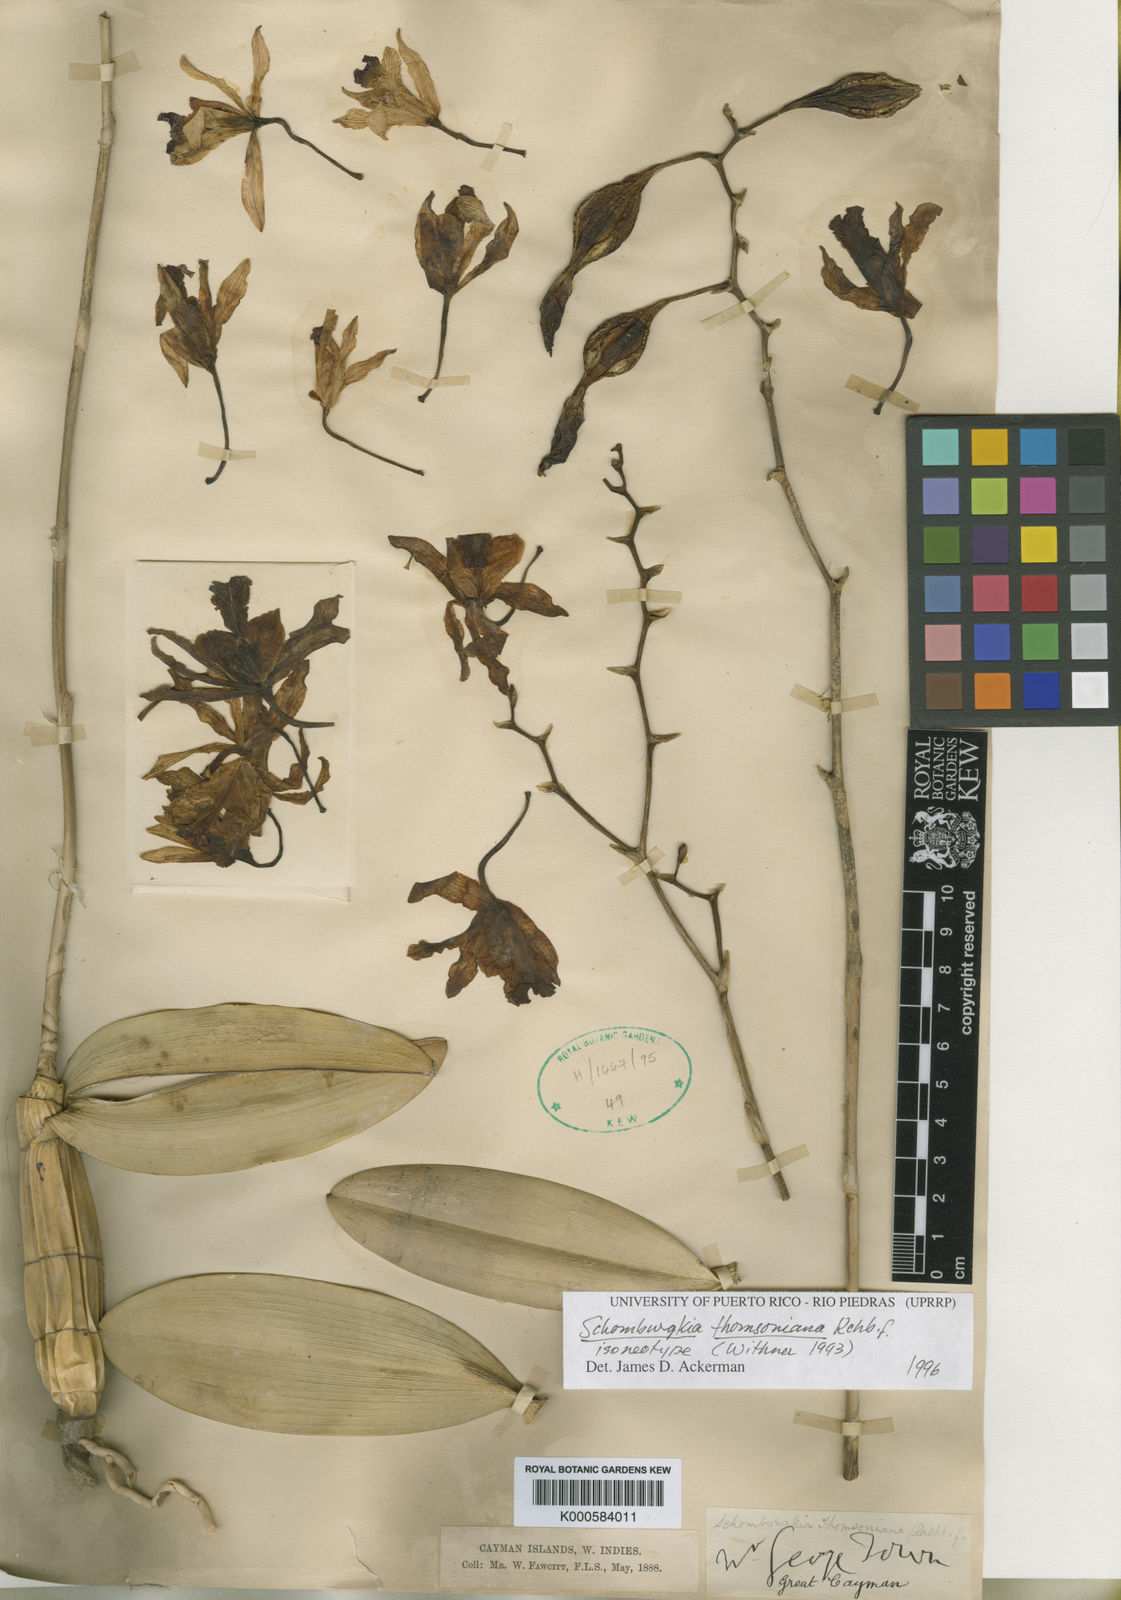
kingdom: Plantae
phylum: Tracheophyta
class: Liliopsida
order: Asparagales
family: Orchidaceae
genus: Laelia
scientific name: Laelia marginata
